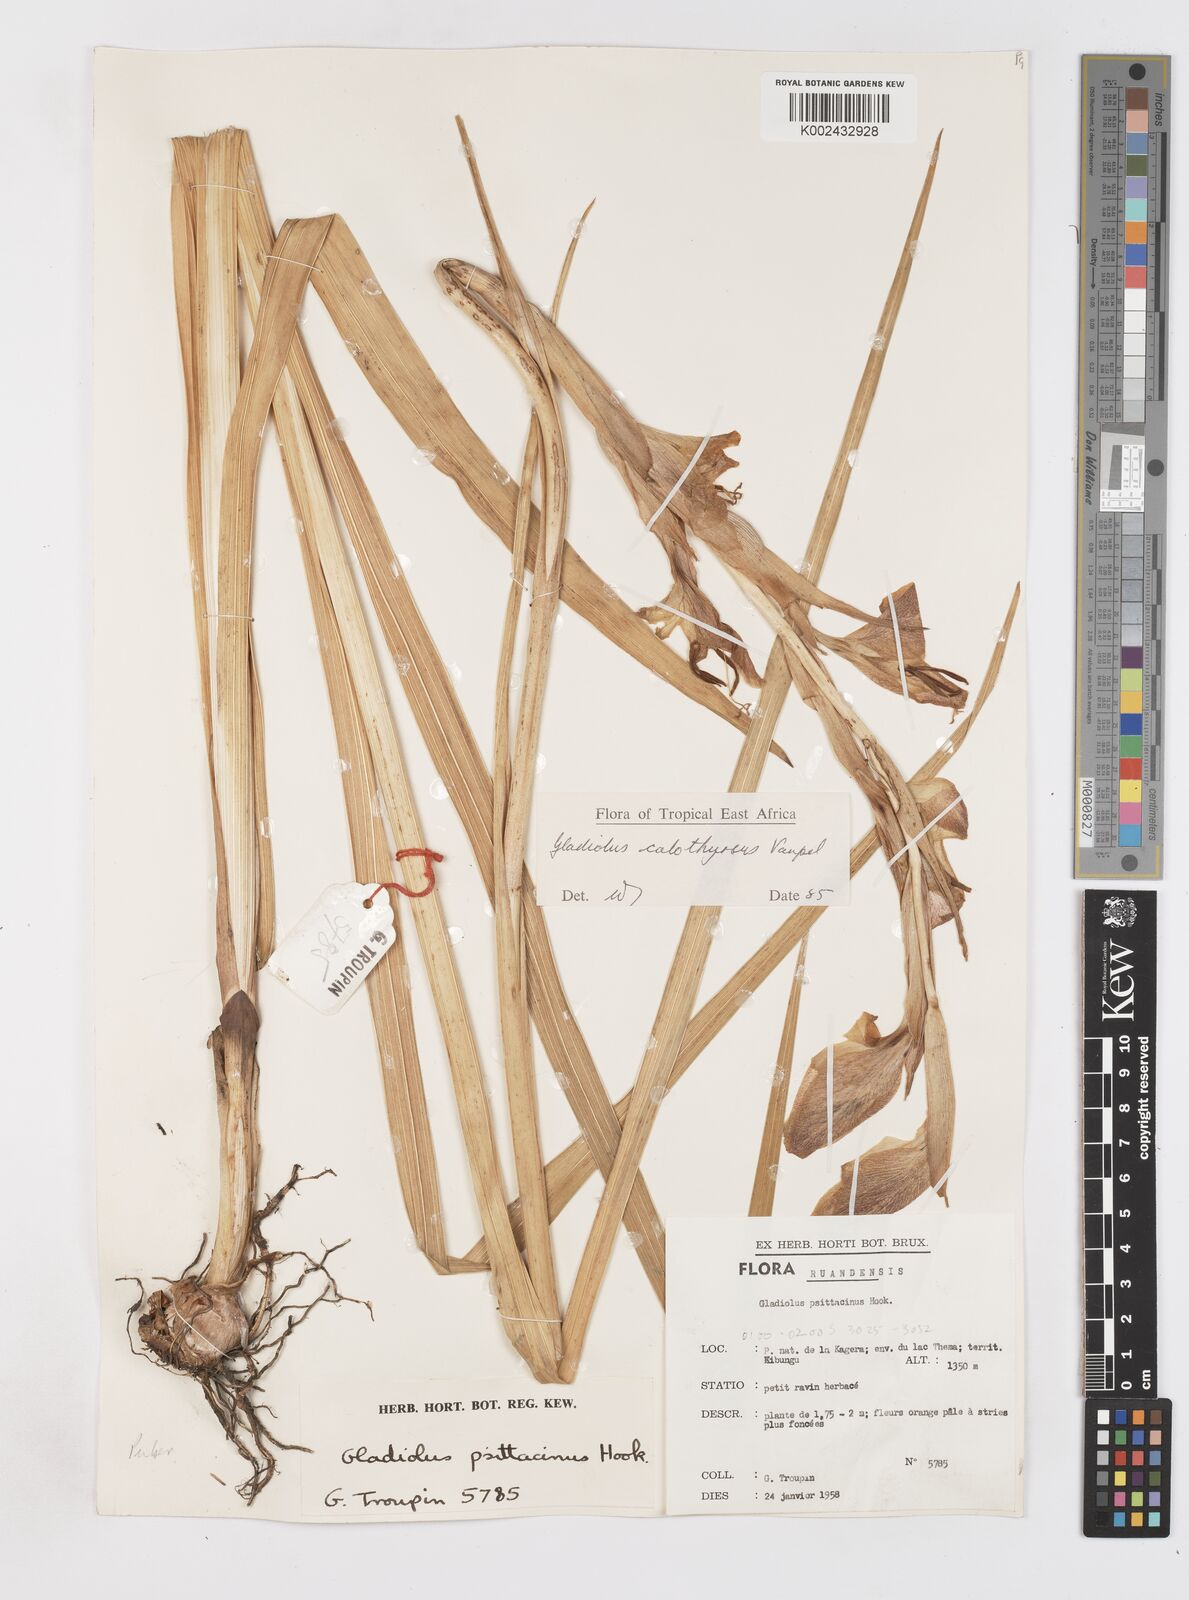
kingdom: Plantae
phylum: Tracheophyta
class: Liliopsida
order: Asparagales
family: Iridaceae
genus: Gladiolus
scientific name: Gladiolus dalenii
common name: Cornflag
